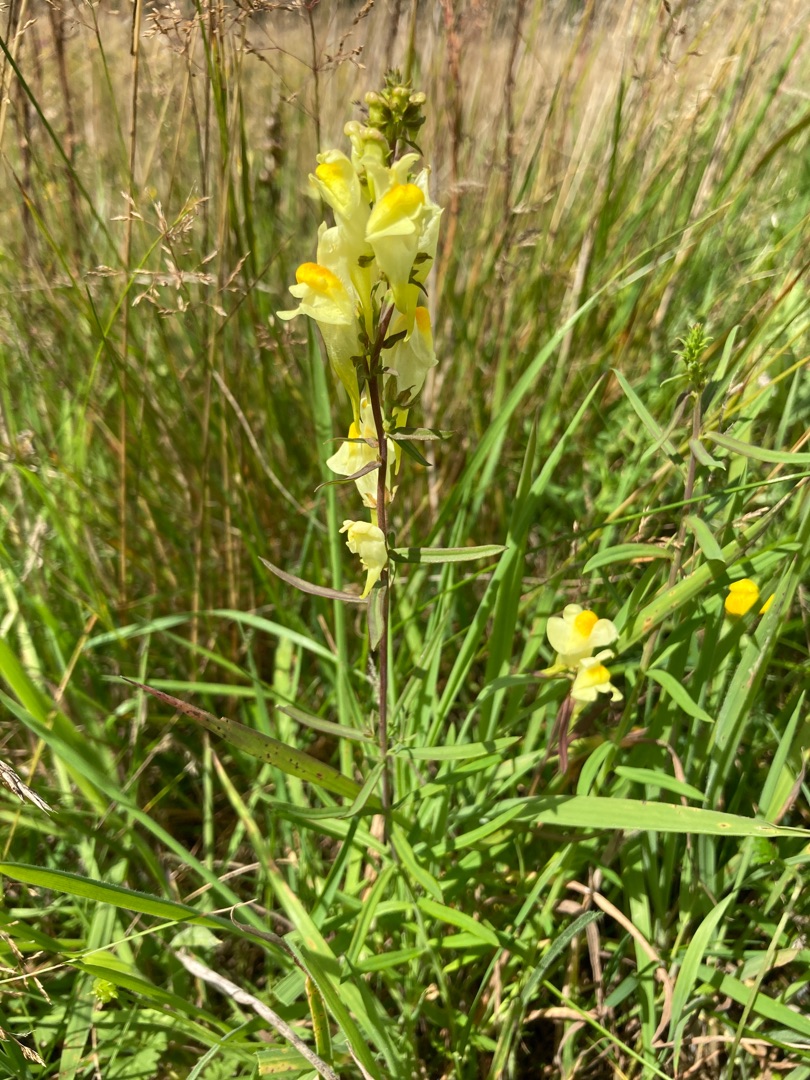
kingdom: Plantae
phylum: Tracheophyta
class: Magnoliopsida
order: Lamiales
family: Plantaginaceae
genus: Linaria
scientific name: Linaria vulgaris
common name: Almindelig torskemund
